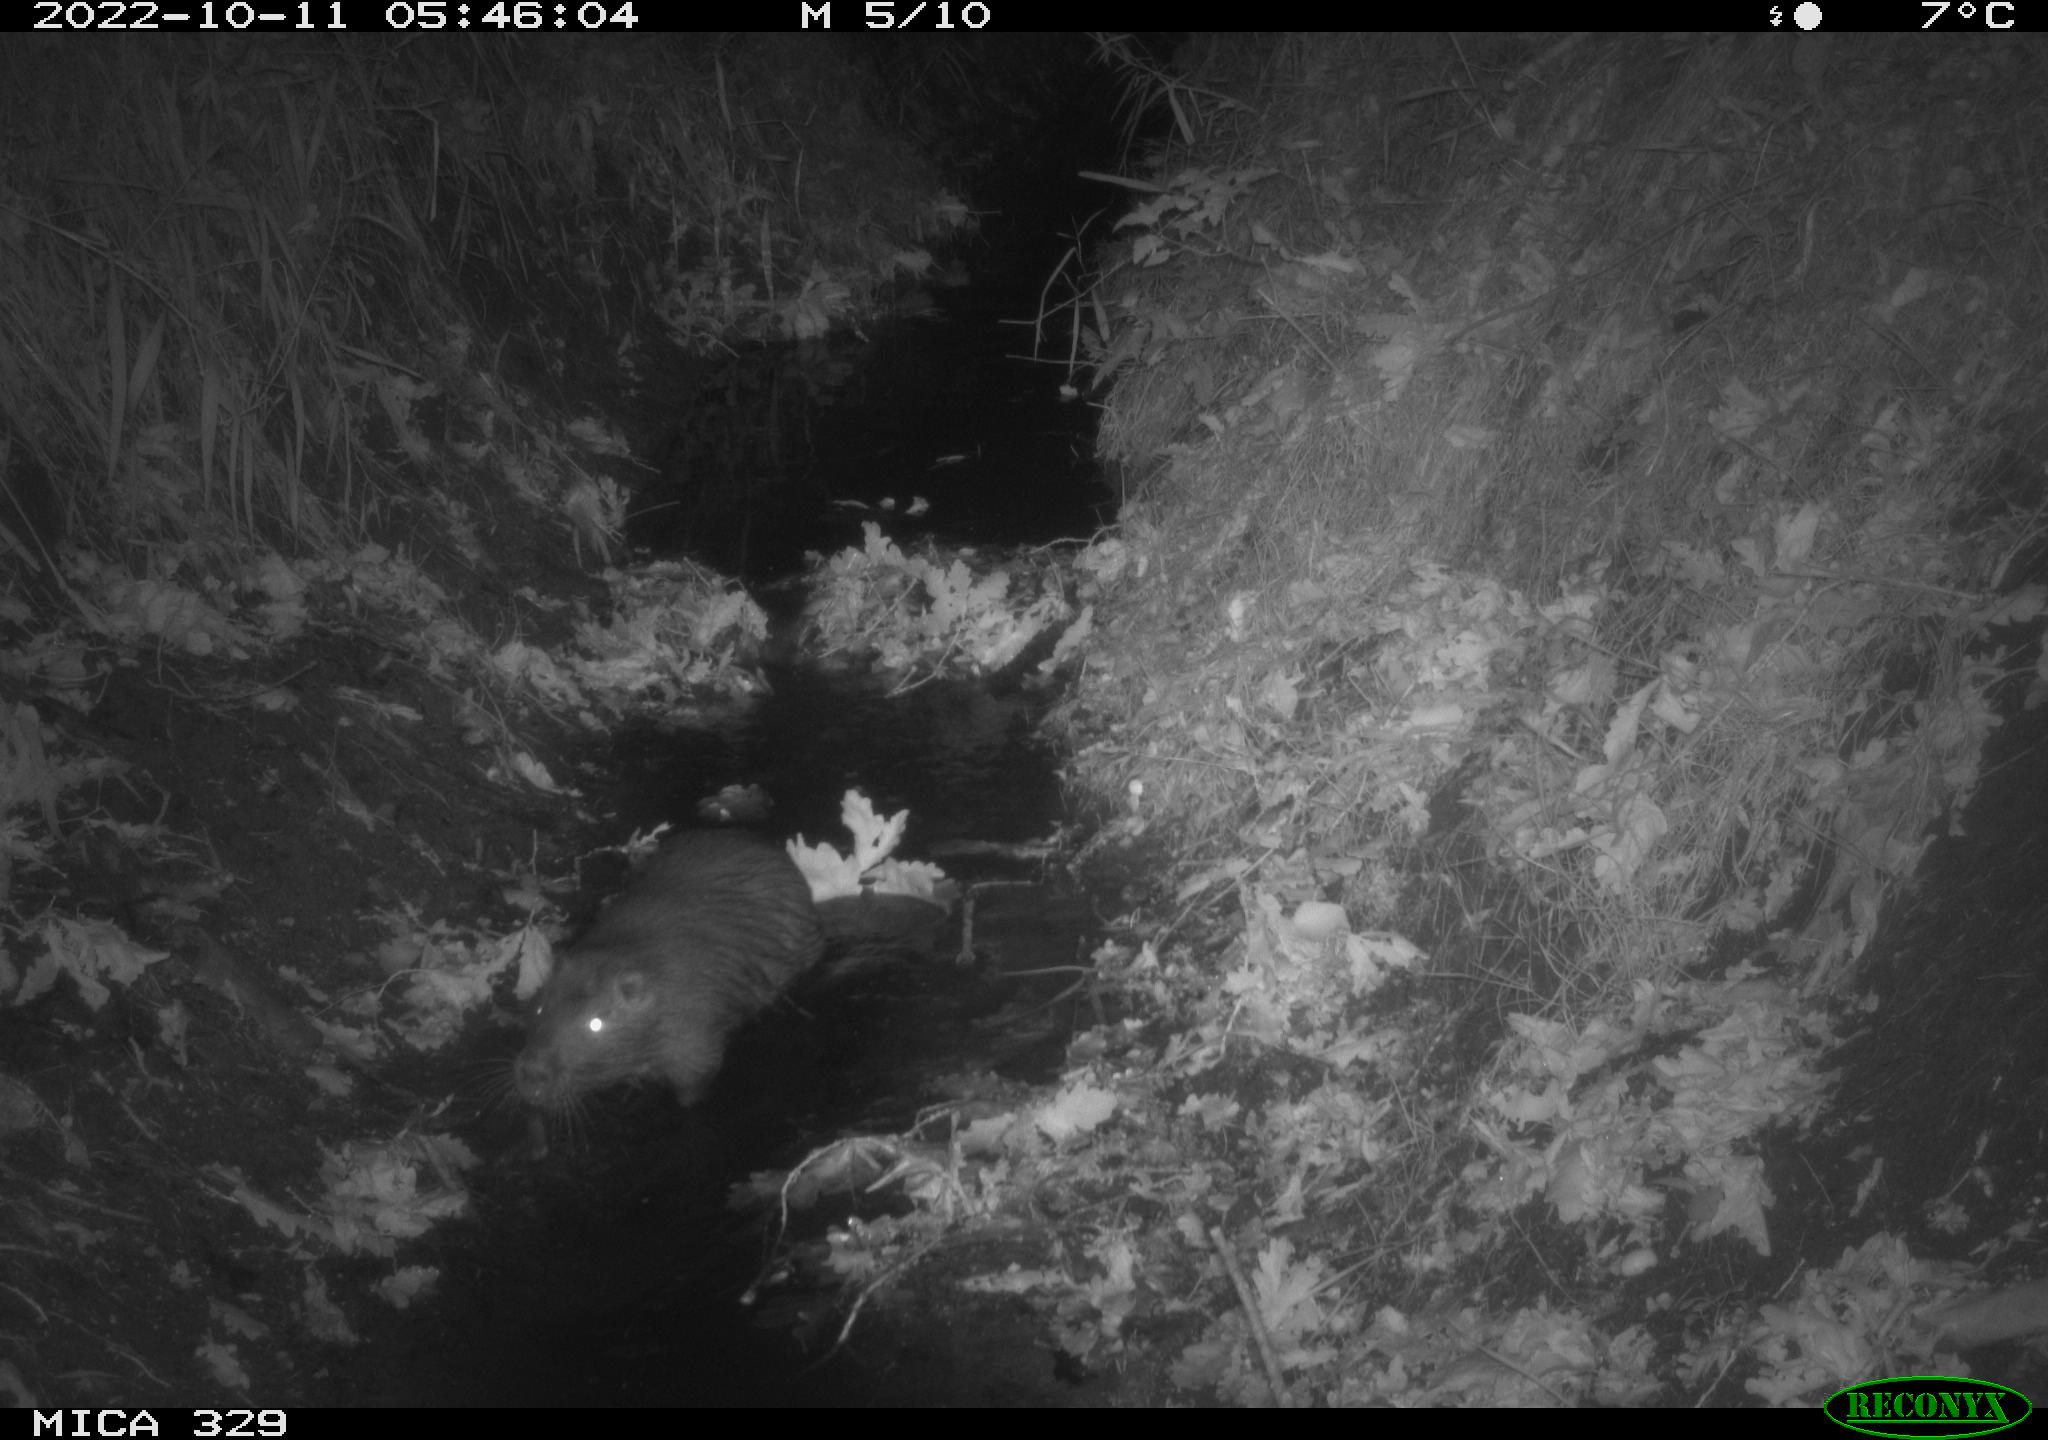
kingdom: Animalia
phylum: Chordata
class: Mammalia
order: Rodentia
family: Myocastoridae
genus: Myocastor
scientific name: Myocastor coypus
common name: Coypu
